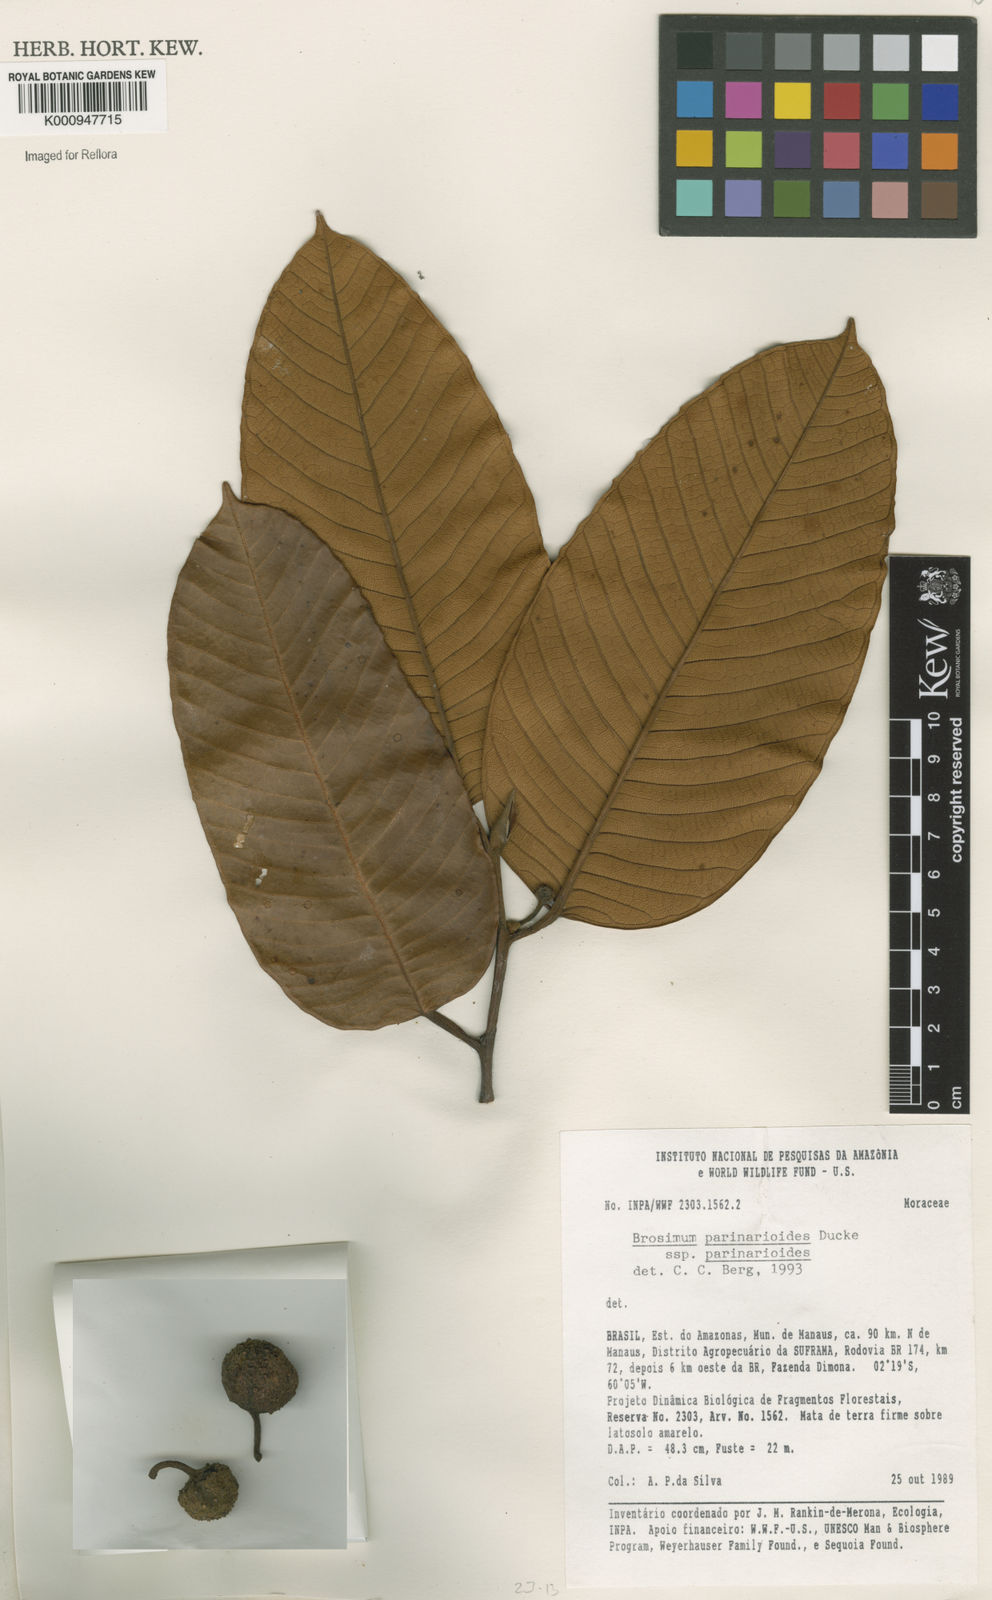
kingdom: Plantae
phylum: Tracheophyta
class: Magnoliopsida
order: Rosales
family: Moraceae
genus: Brosimum
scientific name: Brosimum parinarioides
